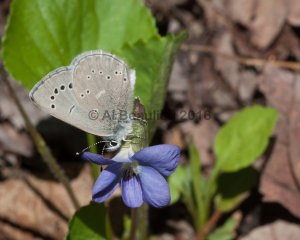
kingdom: Animalia
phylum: Arthropoda
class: Insecta
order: Lepidoptera
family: Lycaenidae
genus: Glaucopsyche
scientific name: Glaucopsyche lygdamus
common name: Silvery Blue
